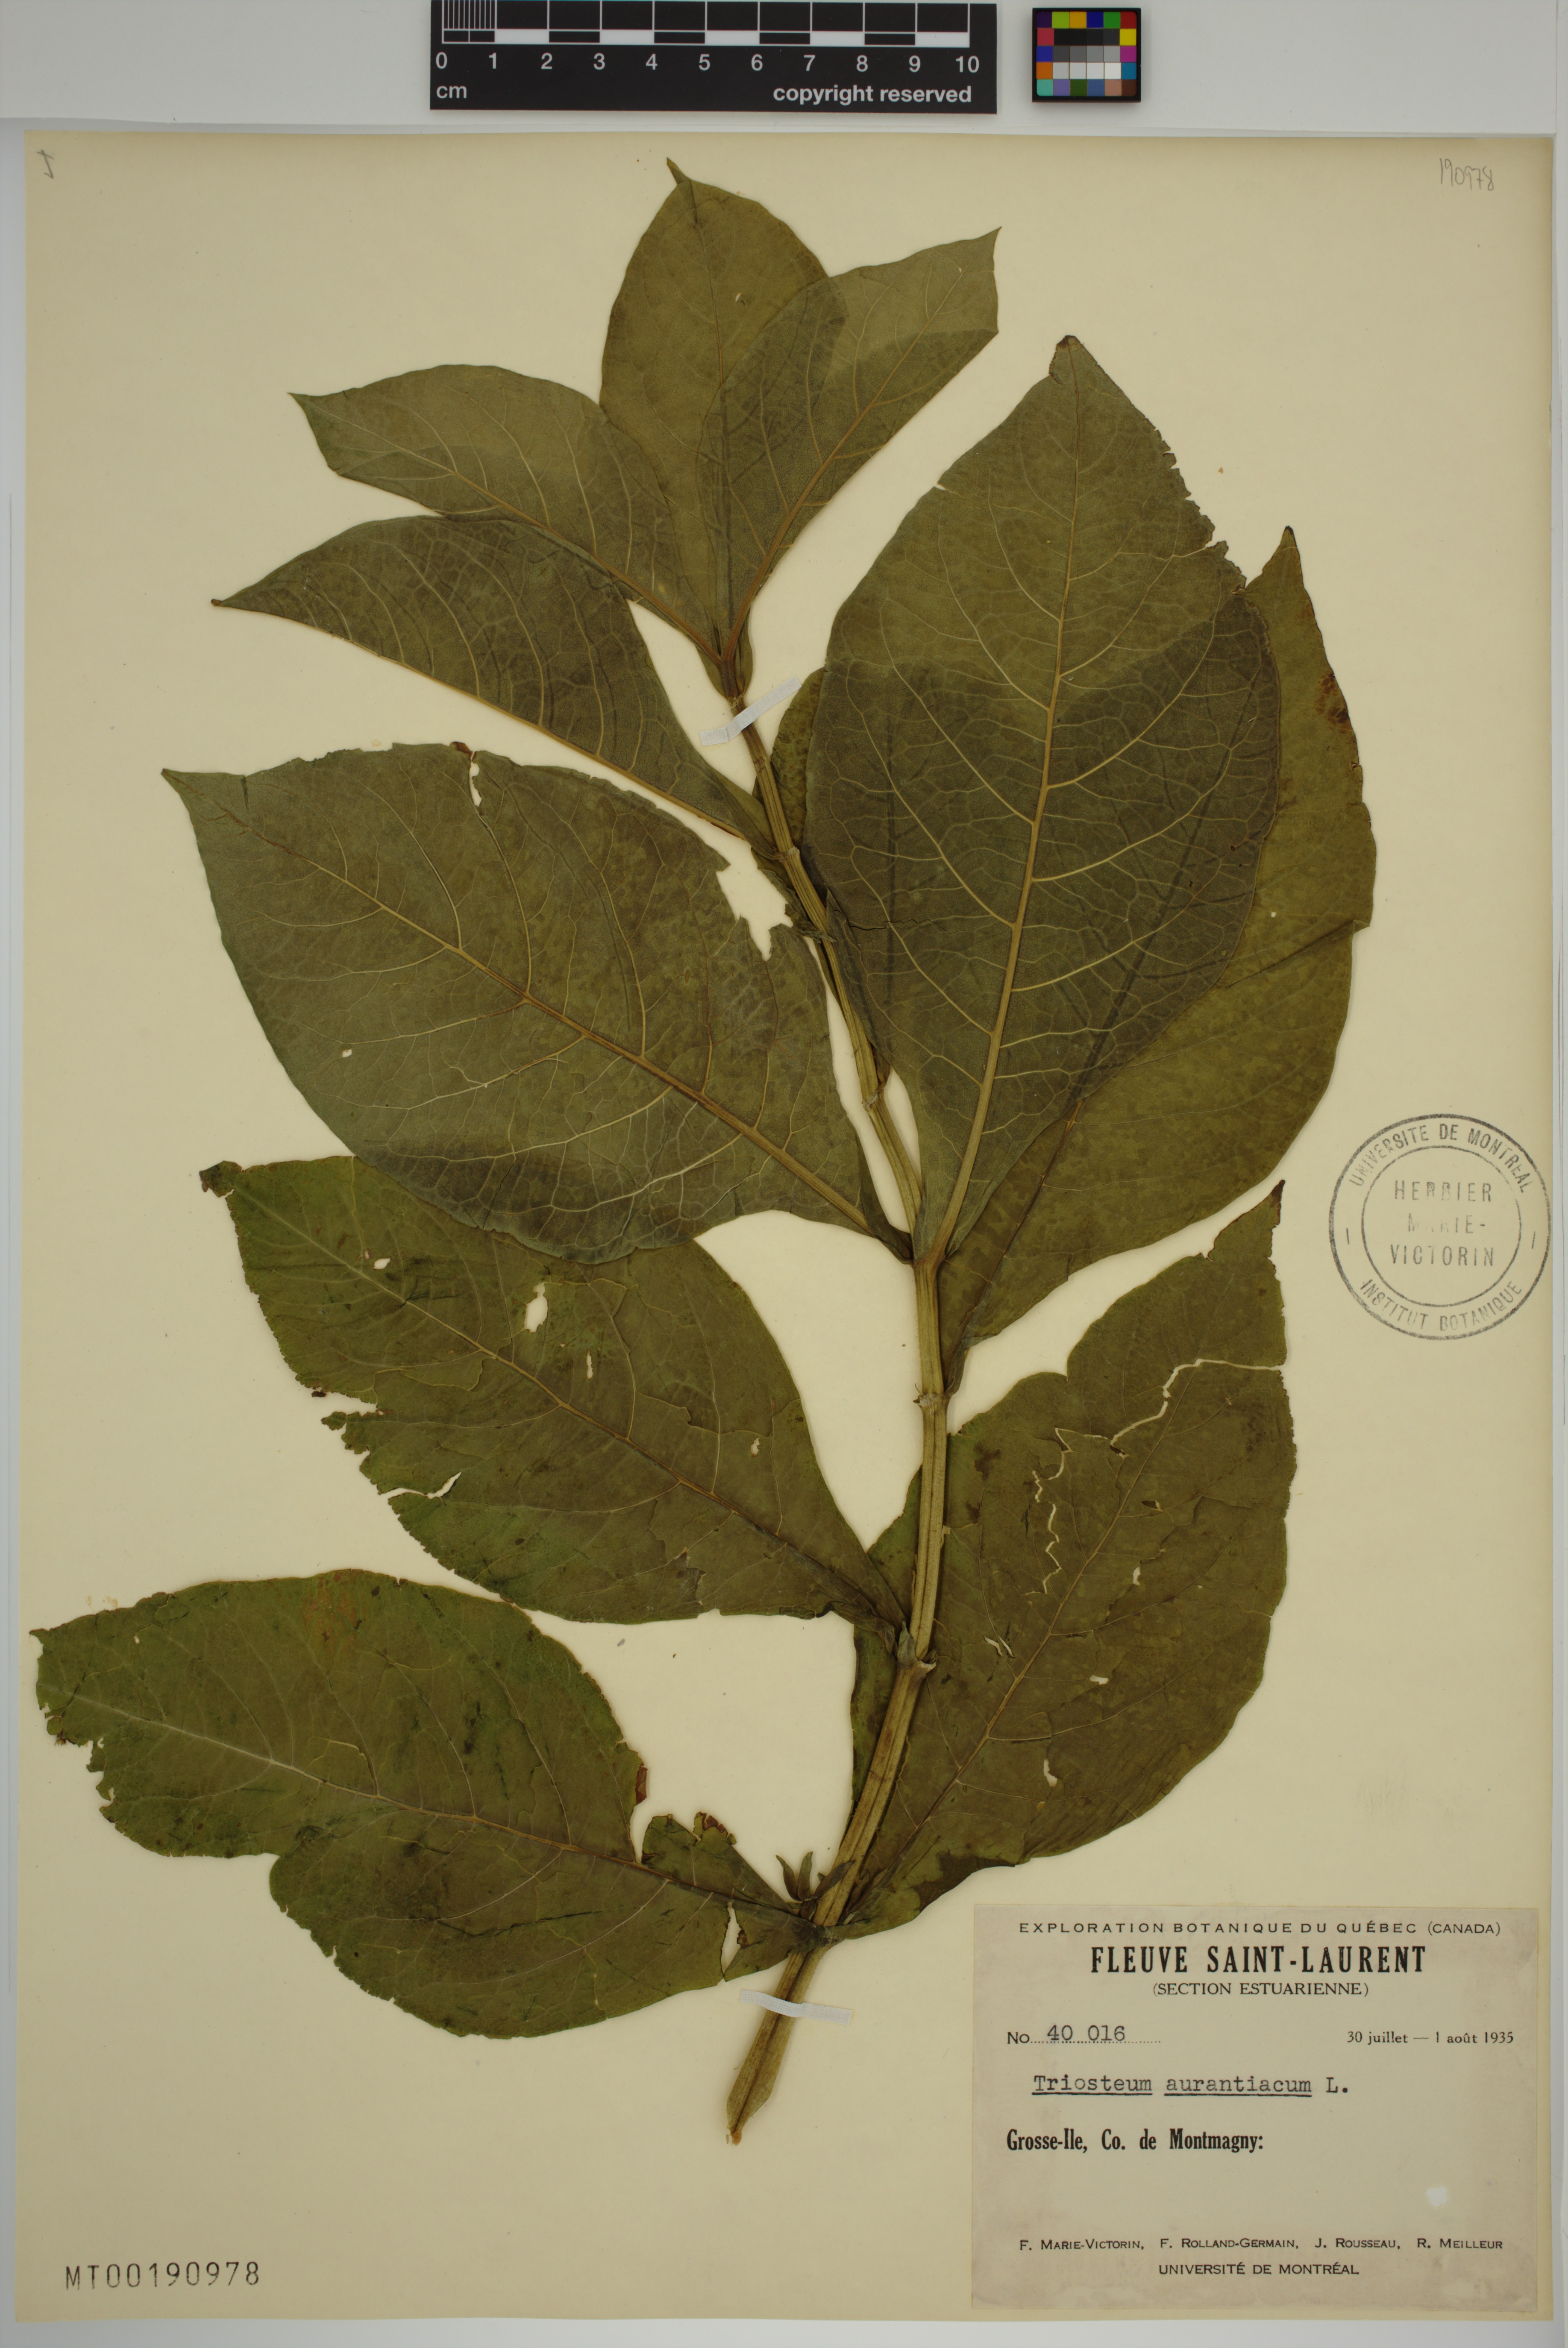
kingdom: Plantae
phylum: Tracheophyta
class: Magnoliopsida
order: Dipsacales
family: Caprifoliaceae
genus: Triosteum
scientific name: Triosteum aurantiacum
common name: Coffee tinker's-weed
